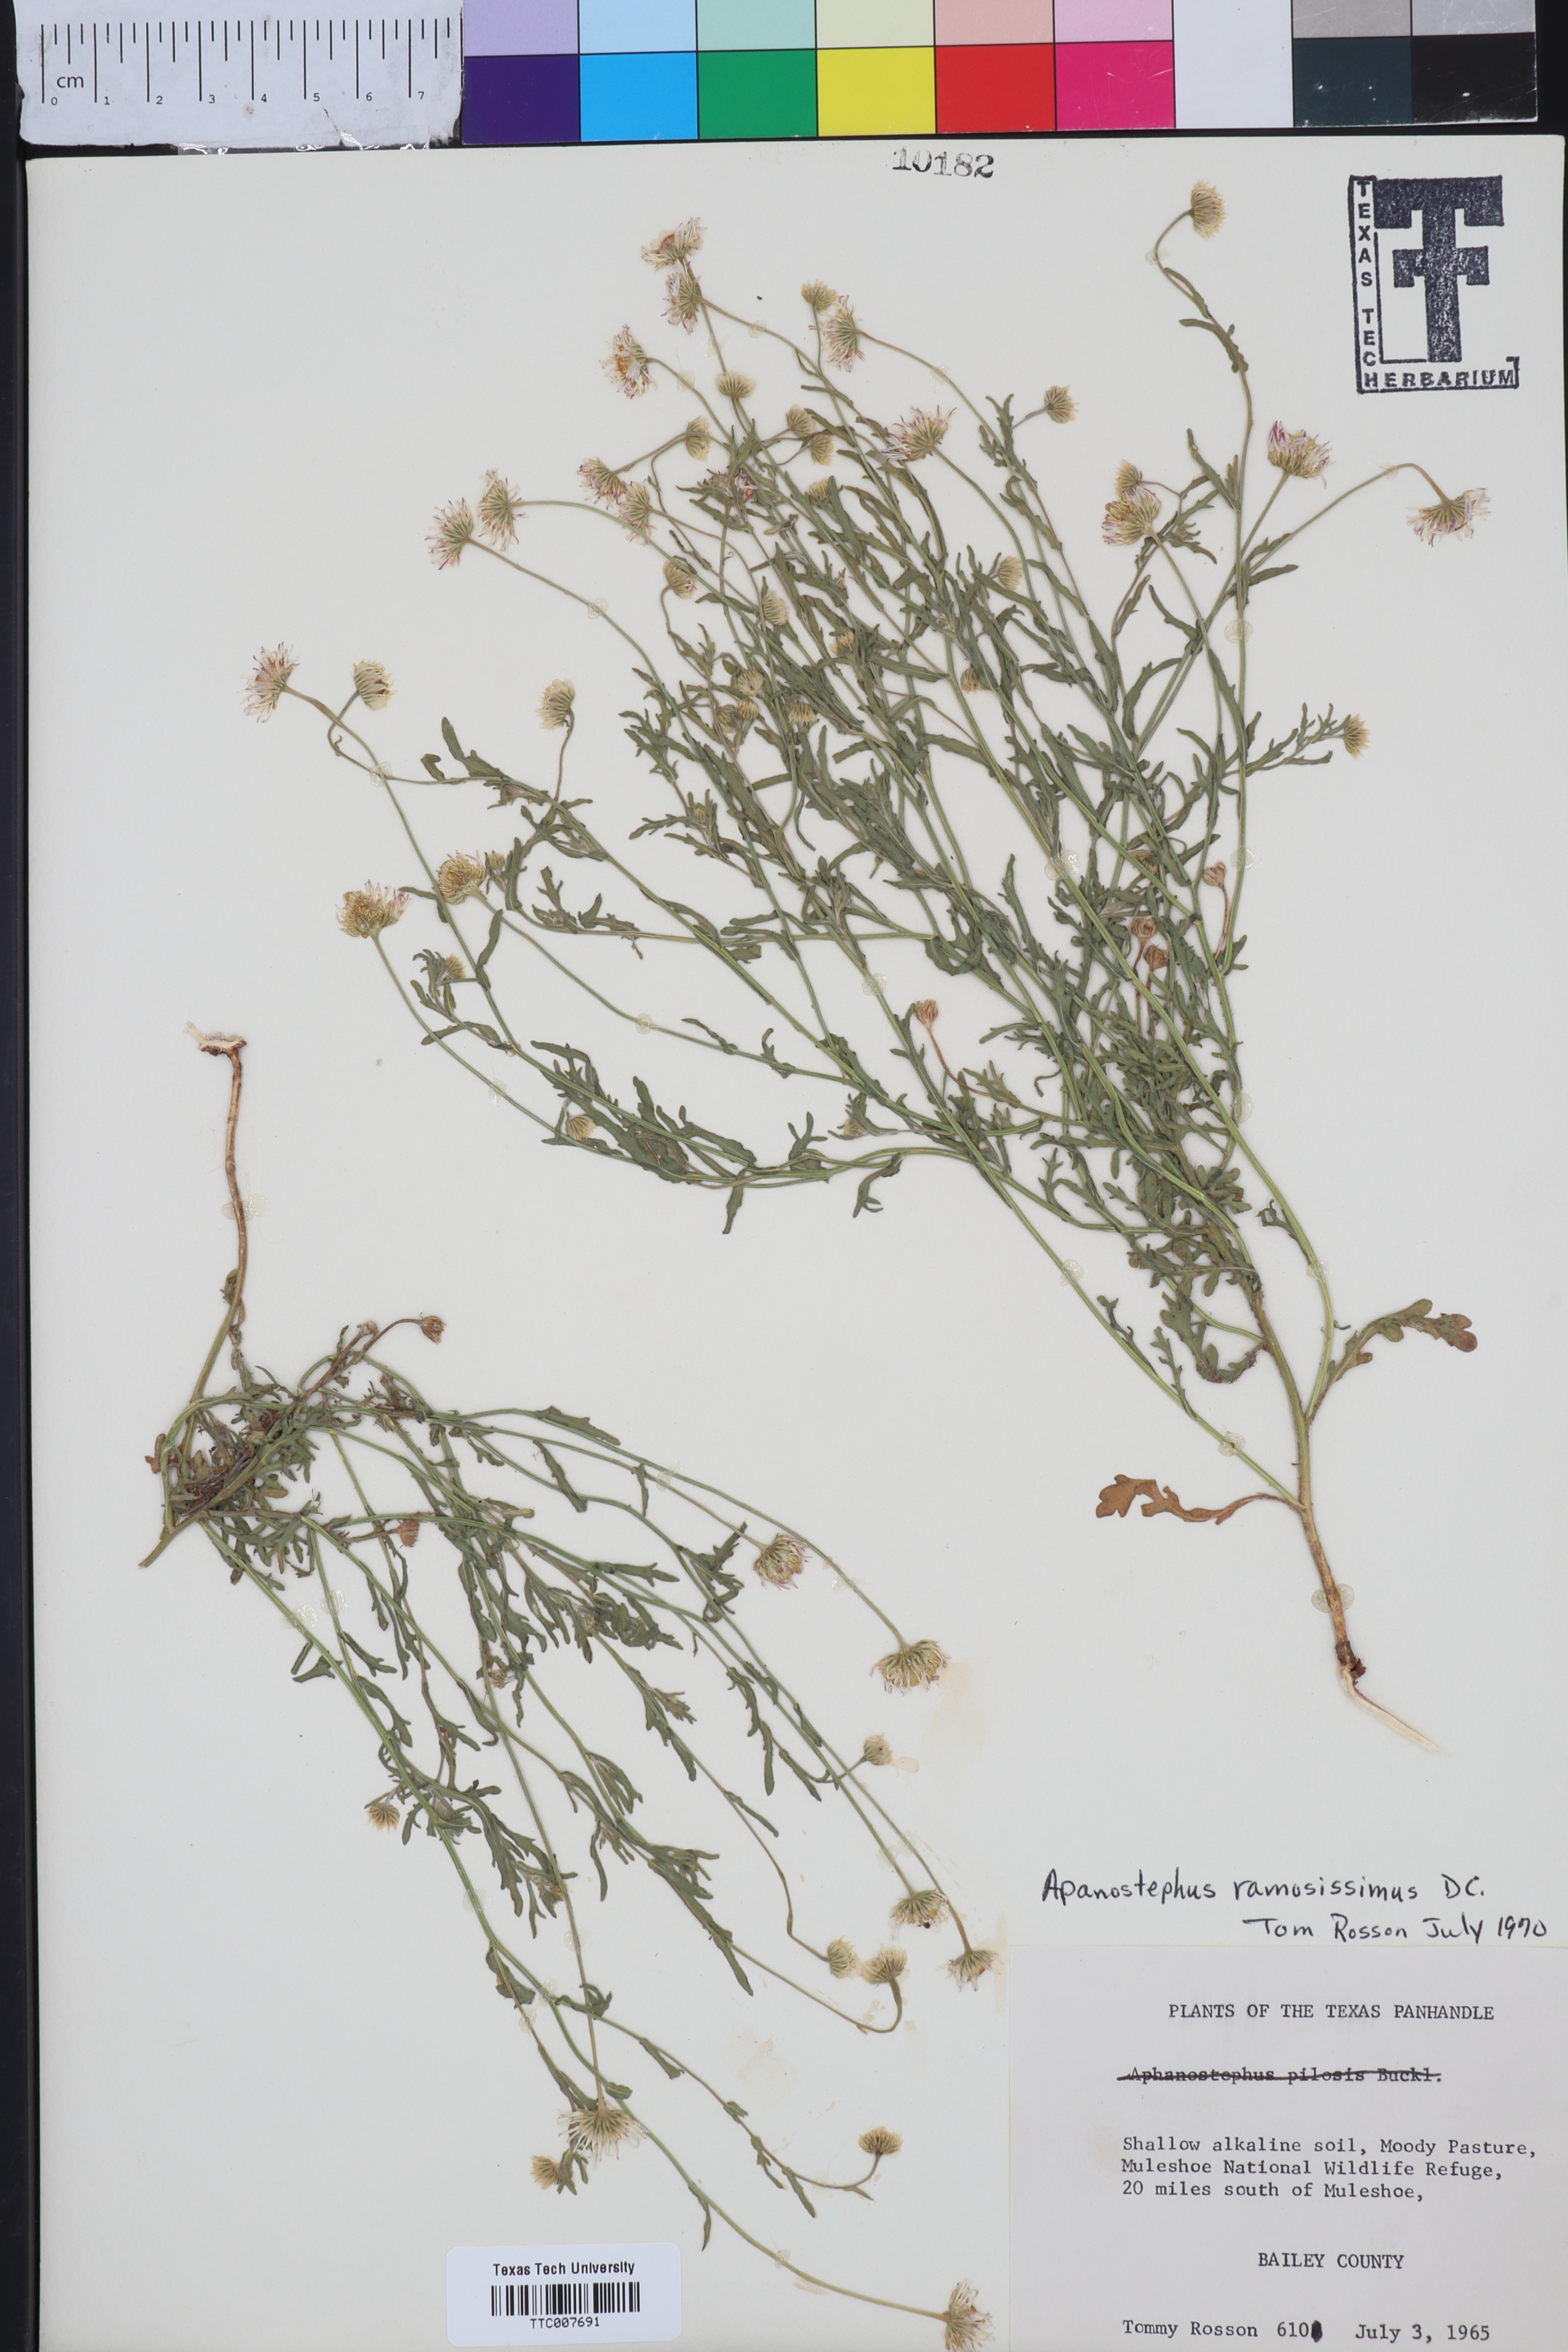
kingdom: Plantae
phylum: Tracheophyta
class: Magnoliopsida
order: Asterales
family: Asteraceae
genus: Aphanostephus
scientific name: Aphanostephus ramosissimus
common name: Plains lazy daisy
